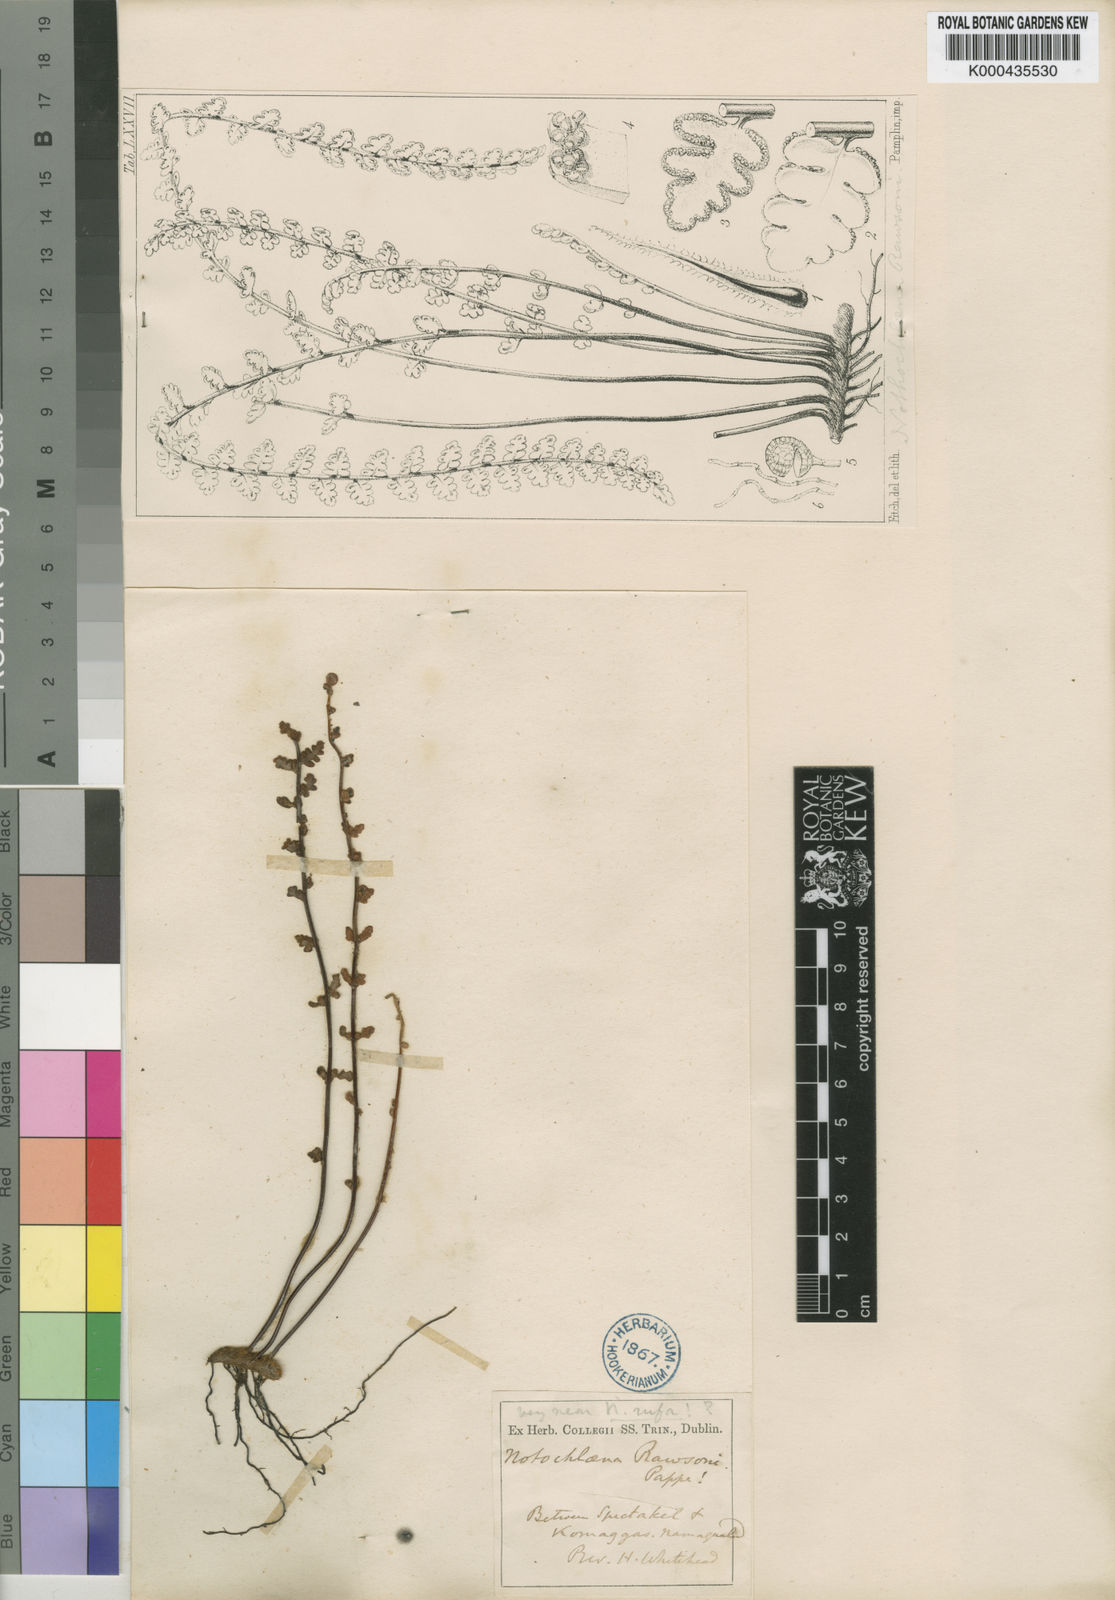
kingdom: Plantae
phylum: Tracheophyta
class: Polypodiopsida
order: Polypodiales
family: Pteridaceae
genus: Myriopteris
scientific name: Myriopteris rawsonii
